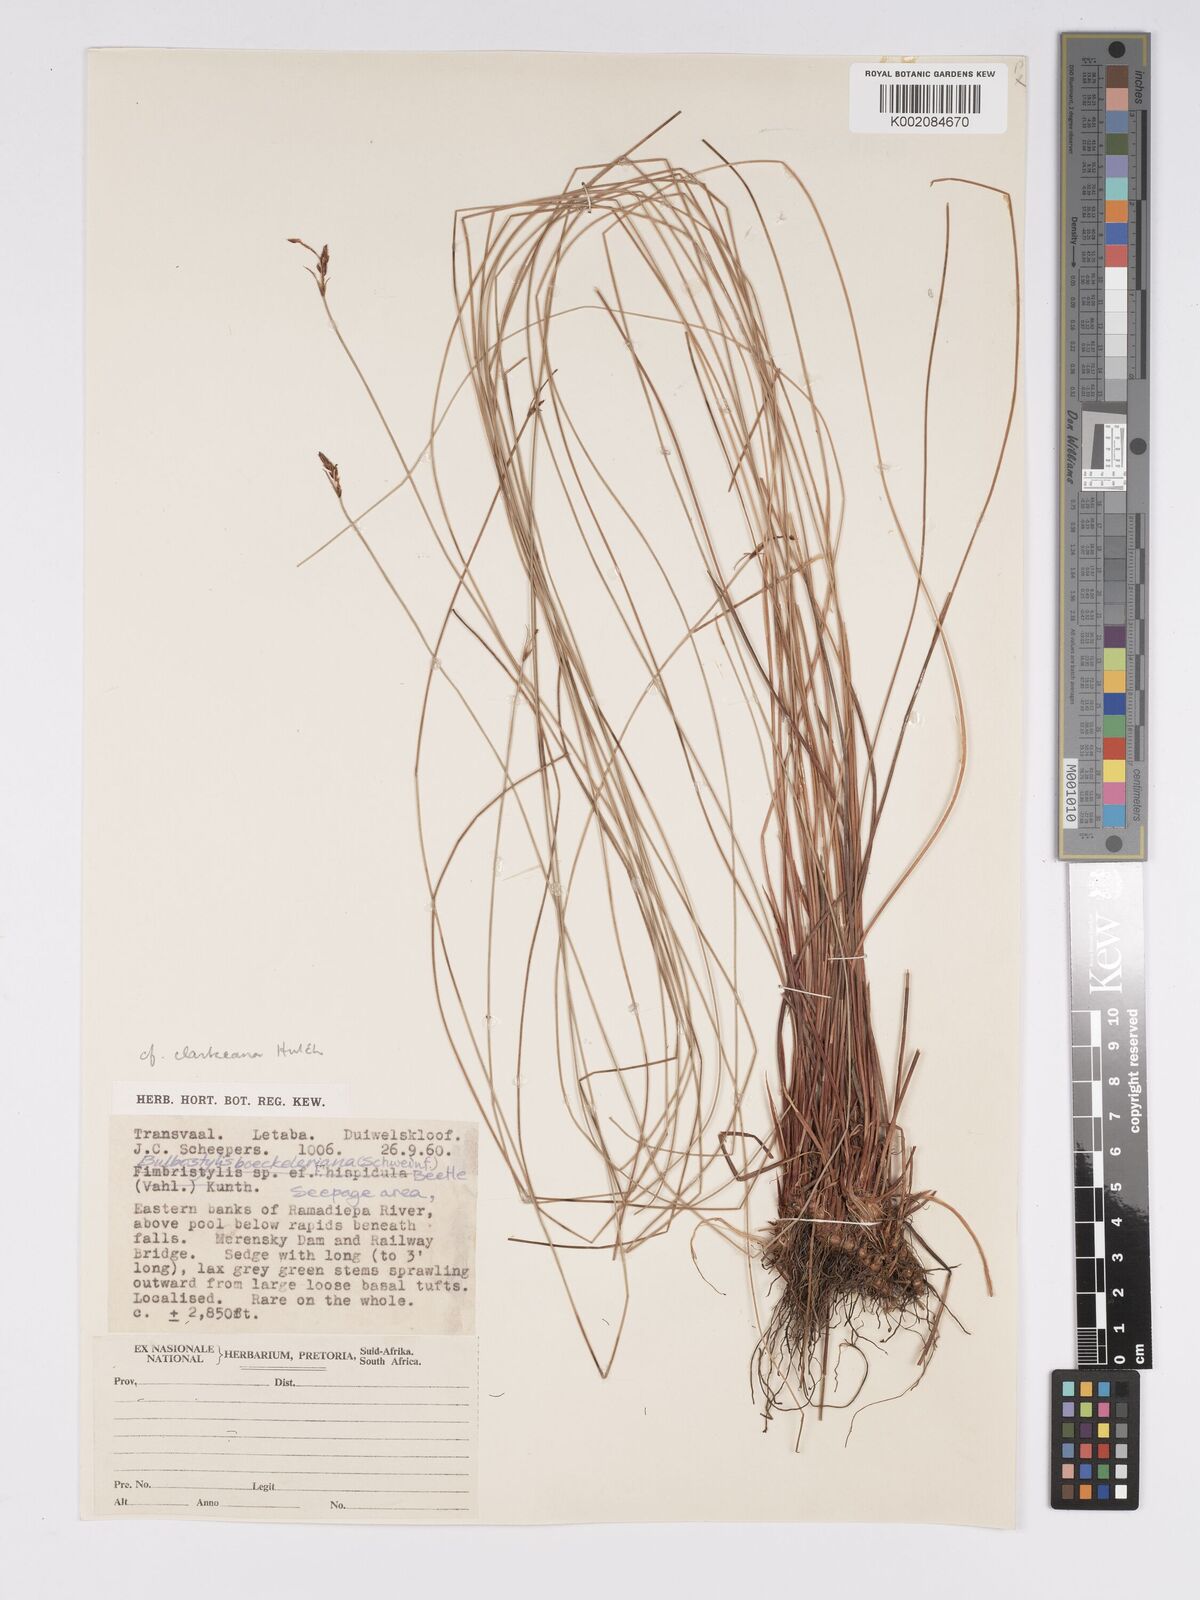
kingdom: Plantae
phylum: Tracheophyta
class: Liliopsida
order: Poales
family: Cyperaceae
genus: Bulbostylis
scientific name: Bulbostylis oritrephes
